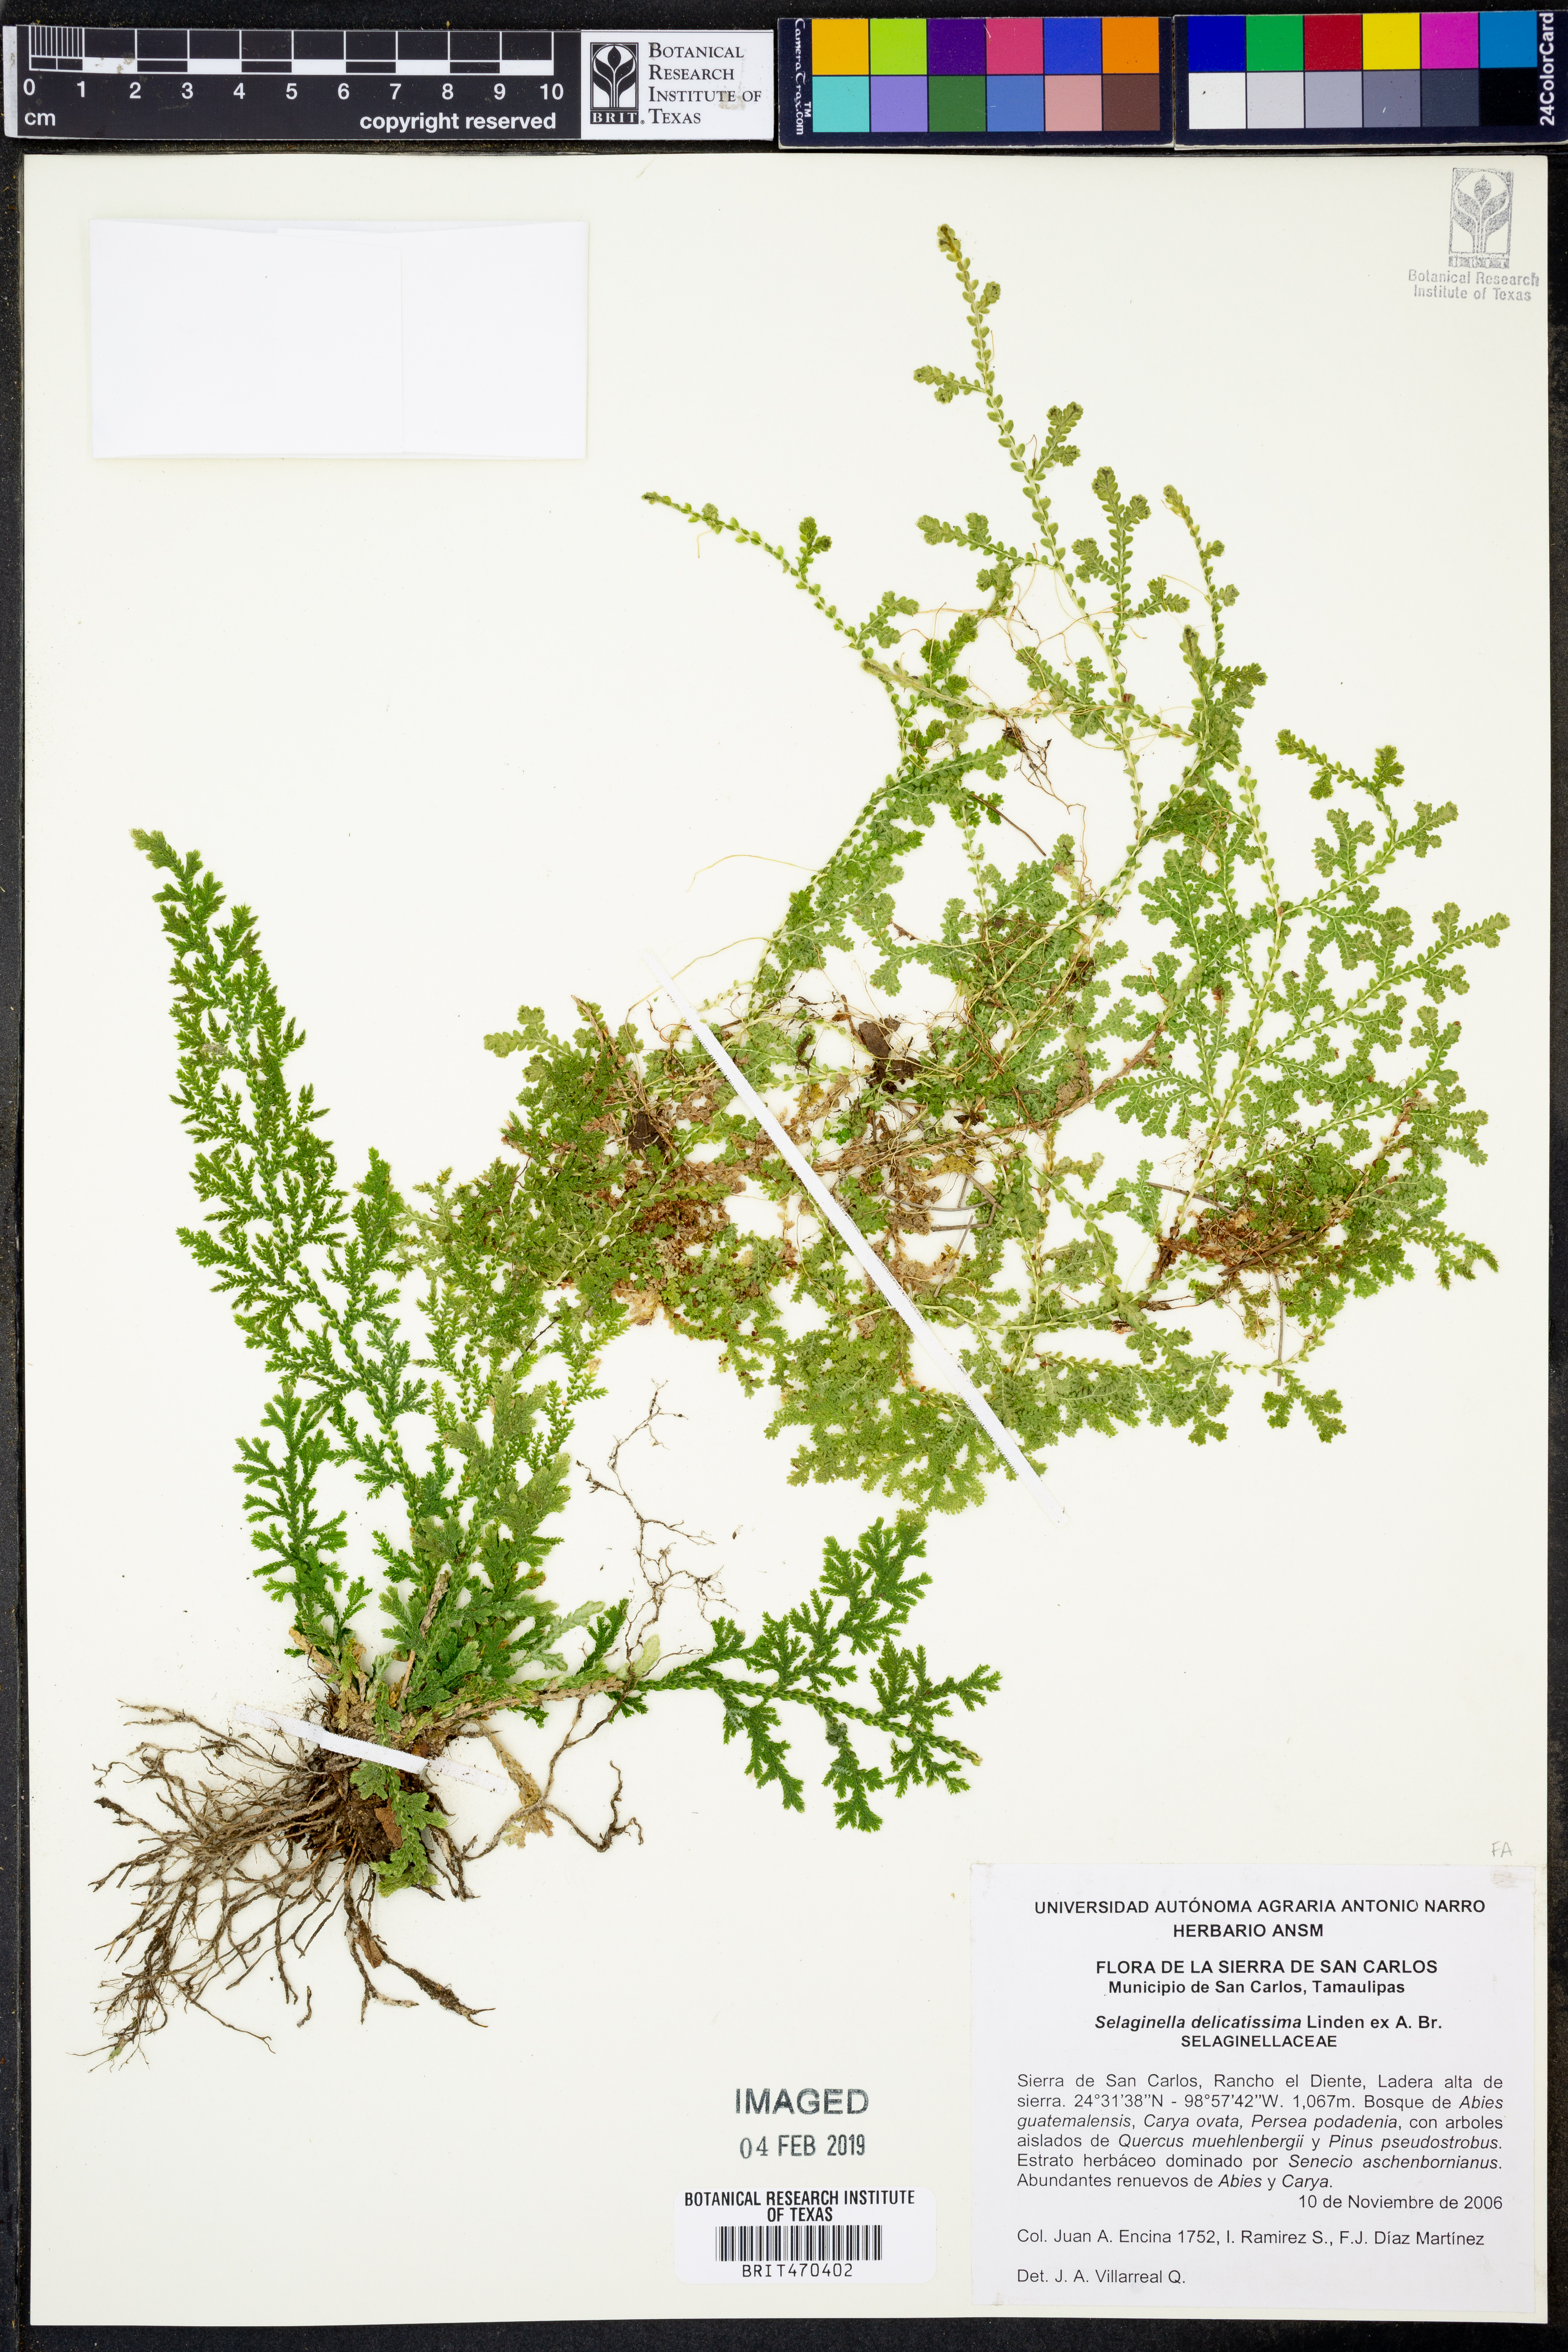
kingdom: Plantae
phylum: Tracheophyta
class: Lycopodiopsida
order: Selaginellales
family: Selaginellaceae
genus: Selaginella
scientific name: Selaginella delicatissima
